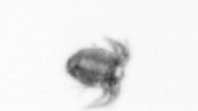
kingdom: Animalia
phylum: Arthropoda
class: Copepoda
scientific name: Copepoda
